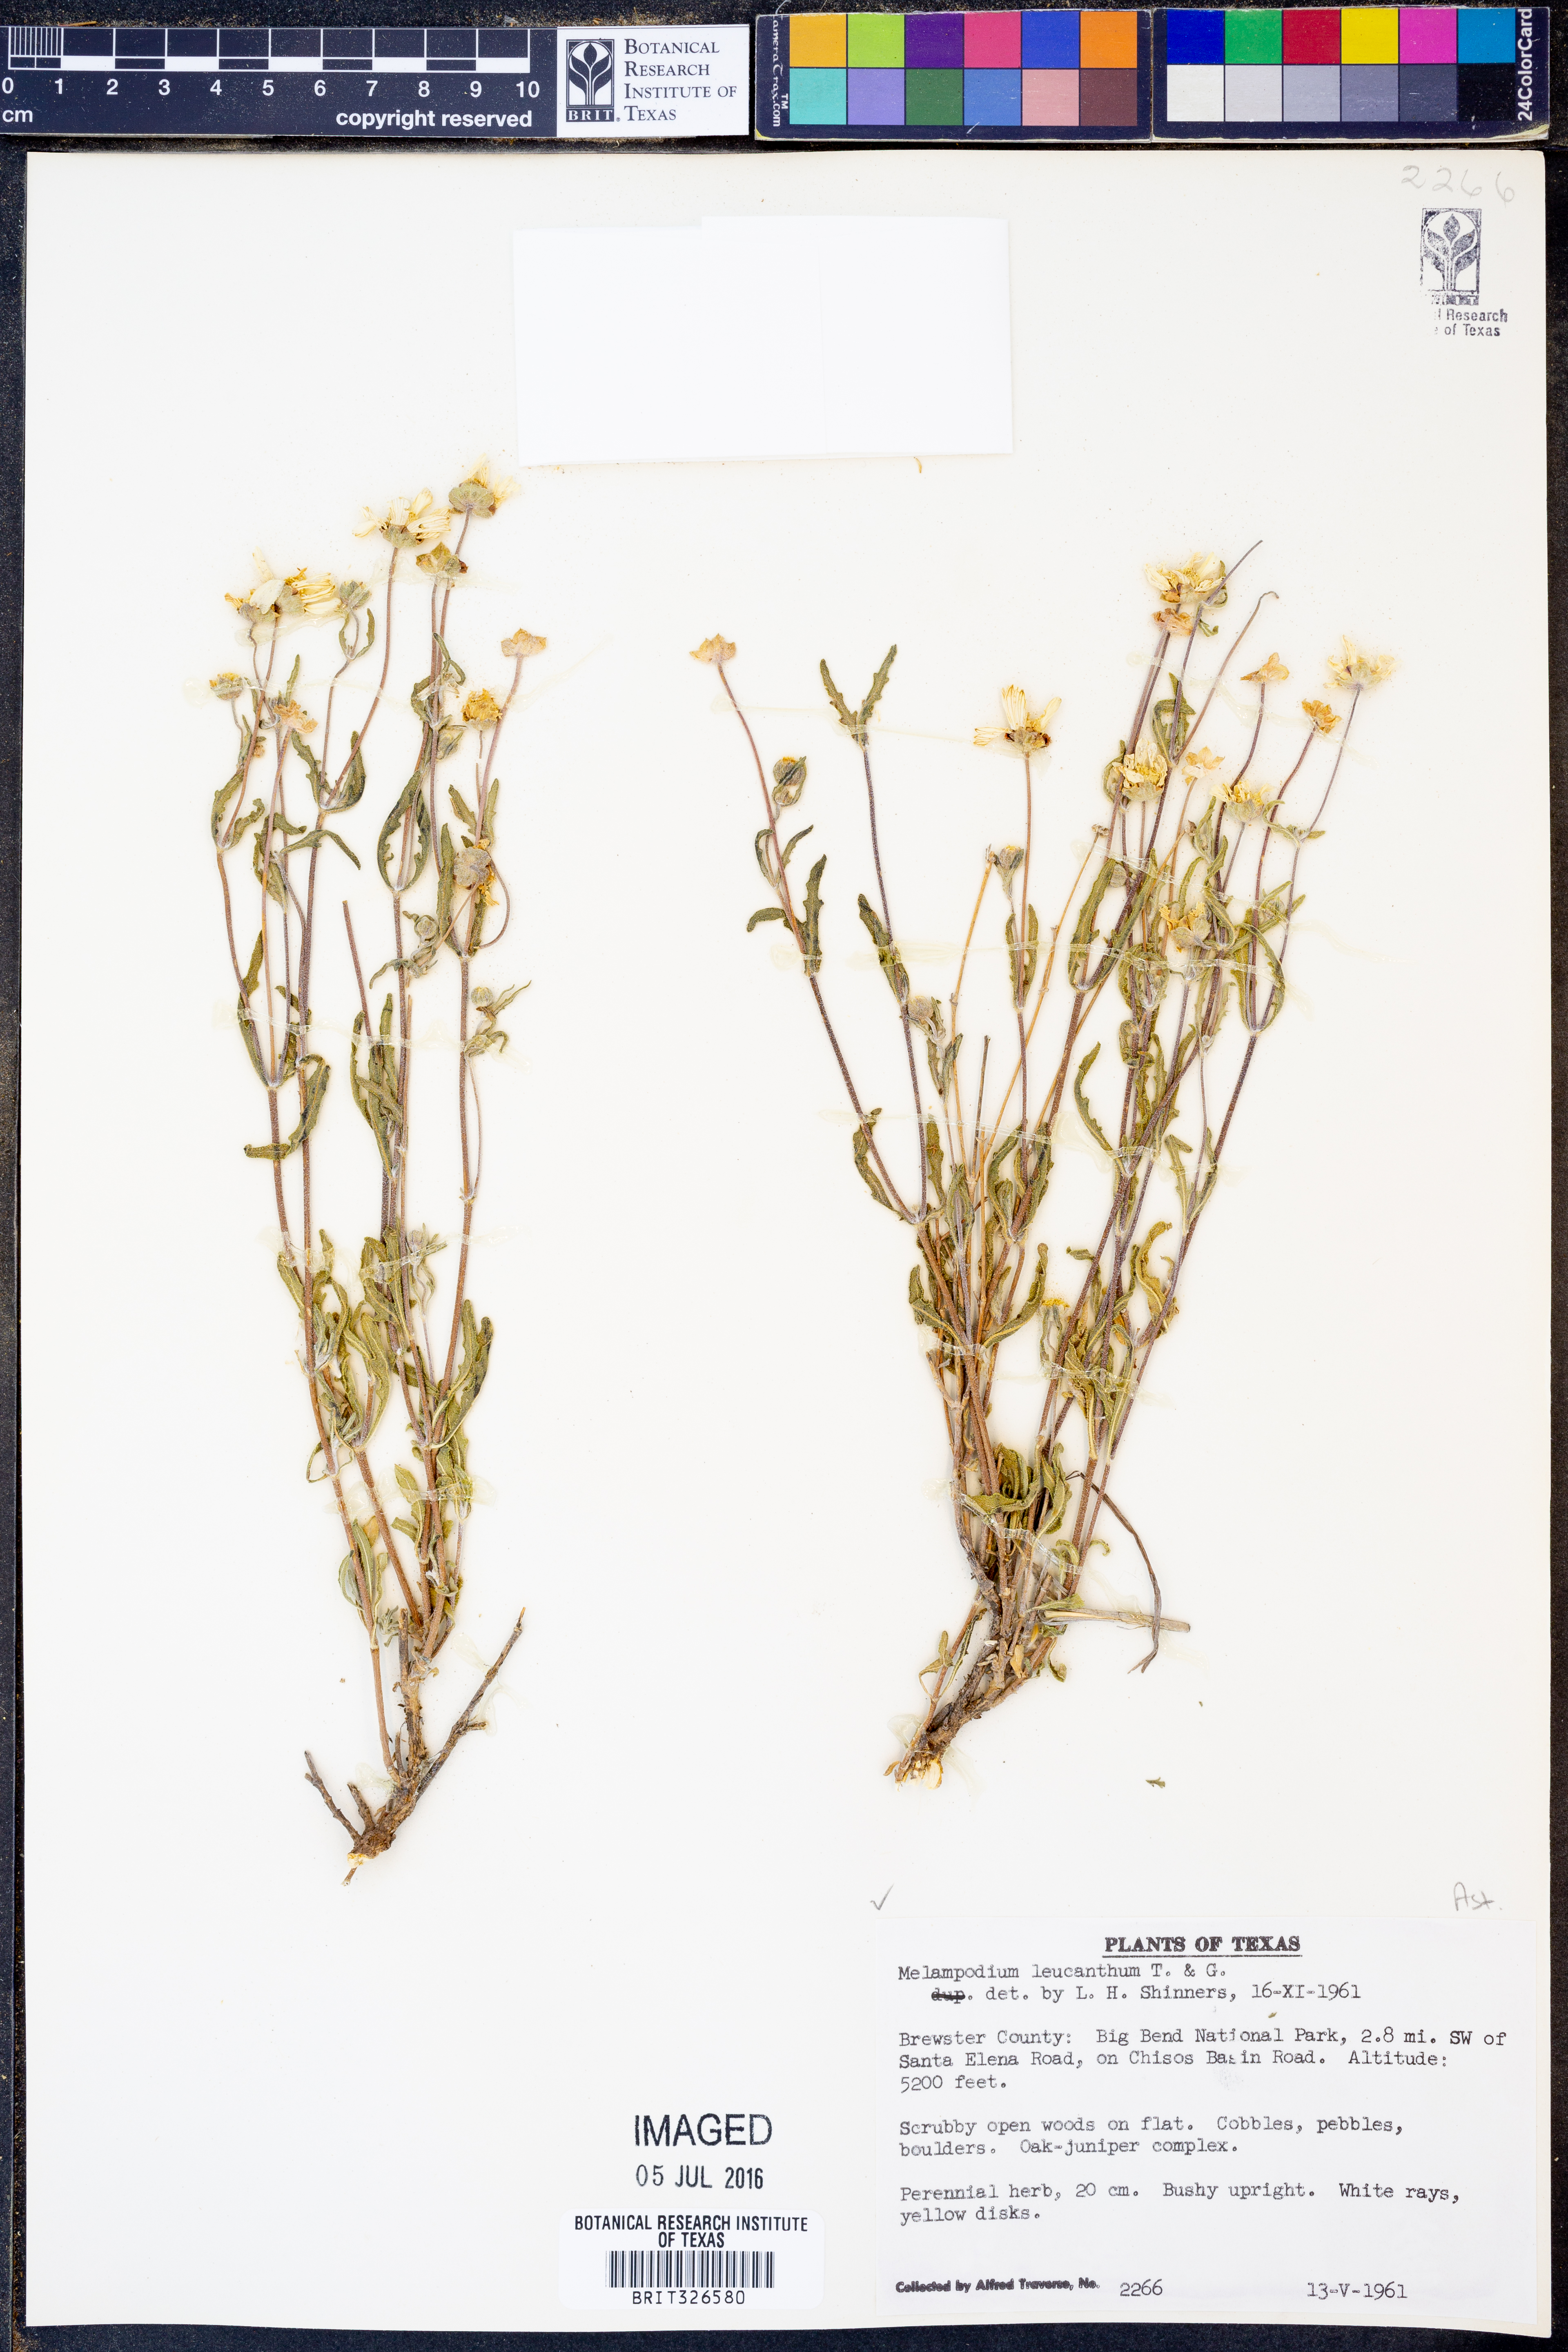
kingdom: Plantae
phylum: Tracheophyta
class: Magnoliopsida
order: Asterales
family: Asteraceae
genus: Melampodium
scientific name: Melampodium leucanthum
